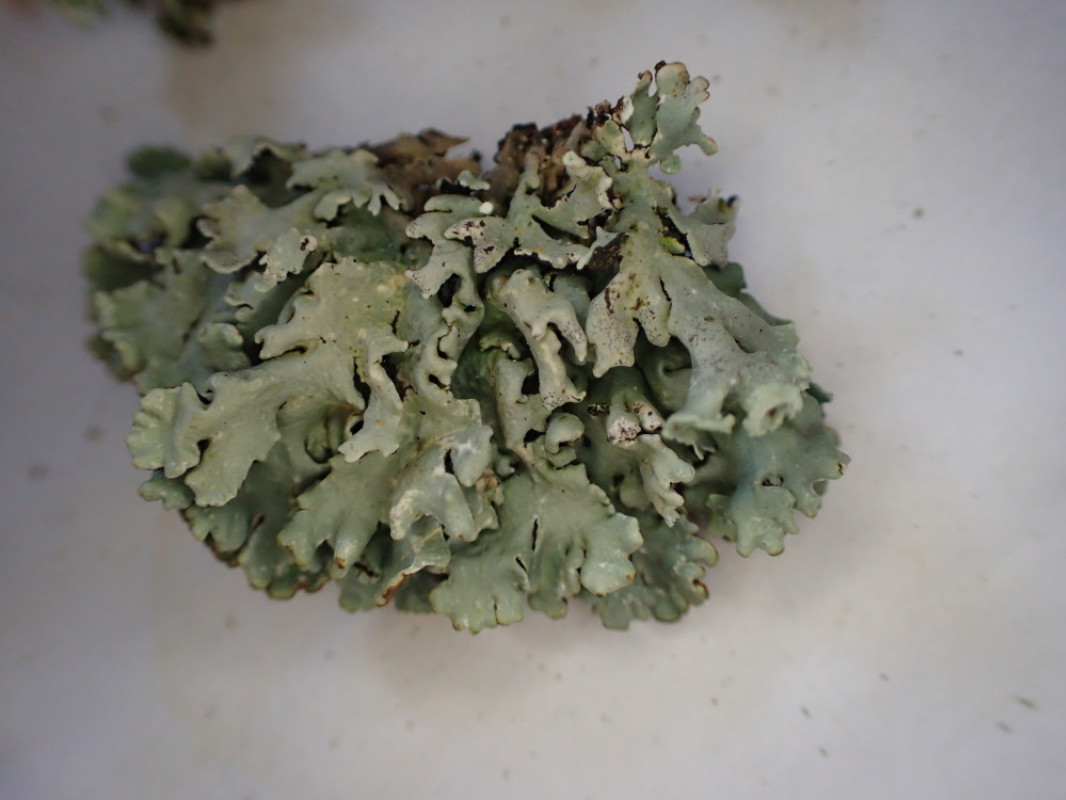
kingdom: Fungi
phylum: Ascomycota
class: Lecanoromycetes
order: Lecanorales
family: Parmeliaceae
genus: Hypogymnia
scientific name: Hypogymnia physodes
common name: almindelig kvistlav
